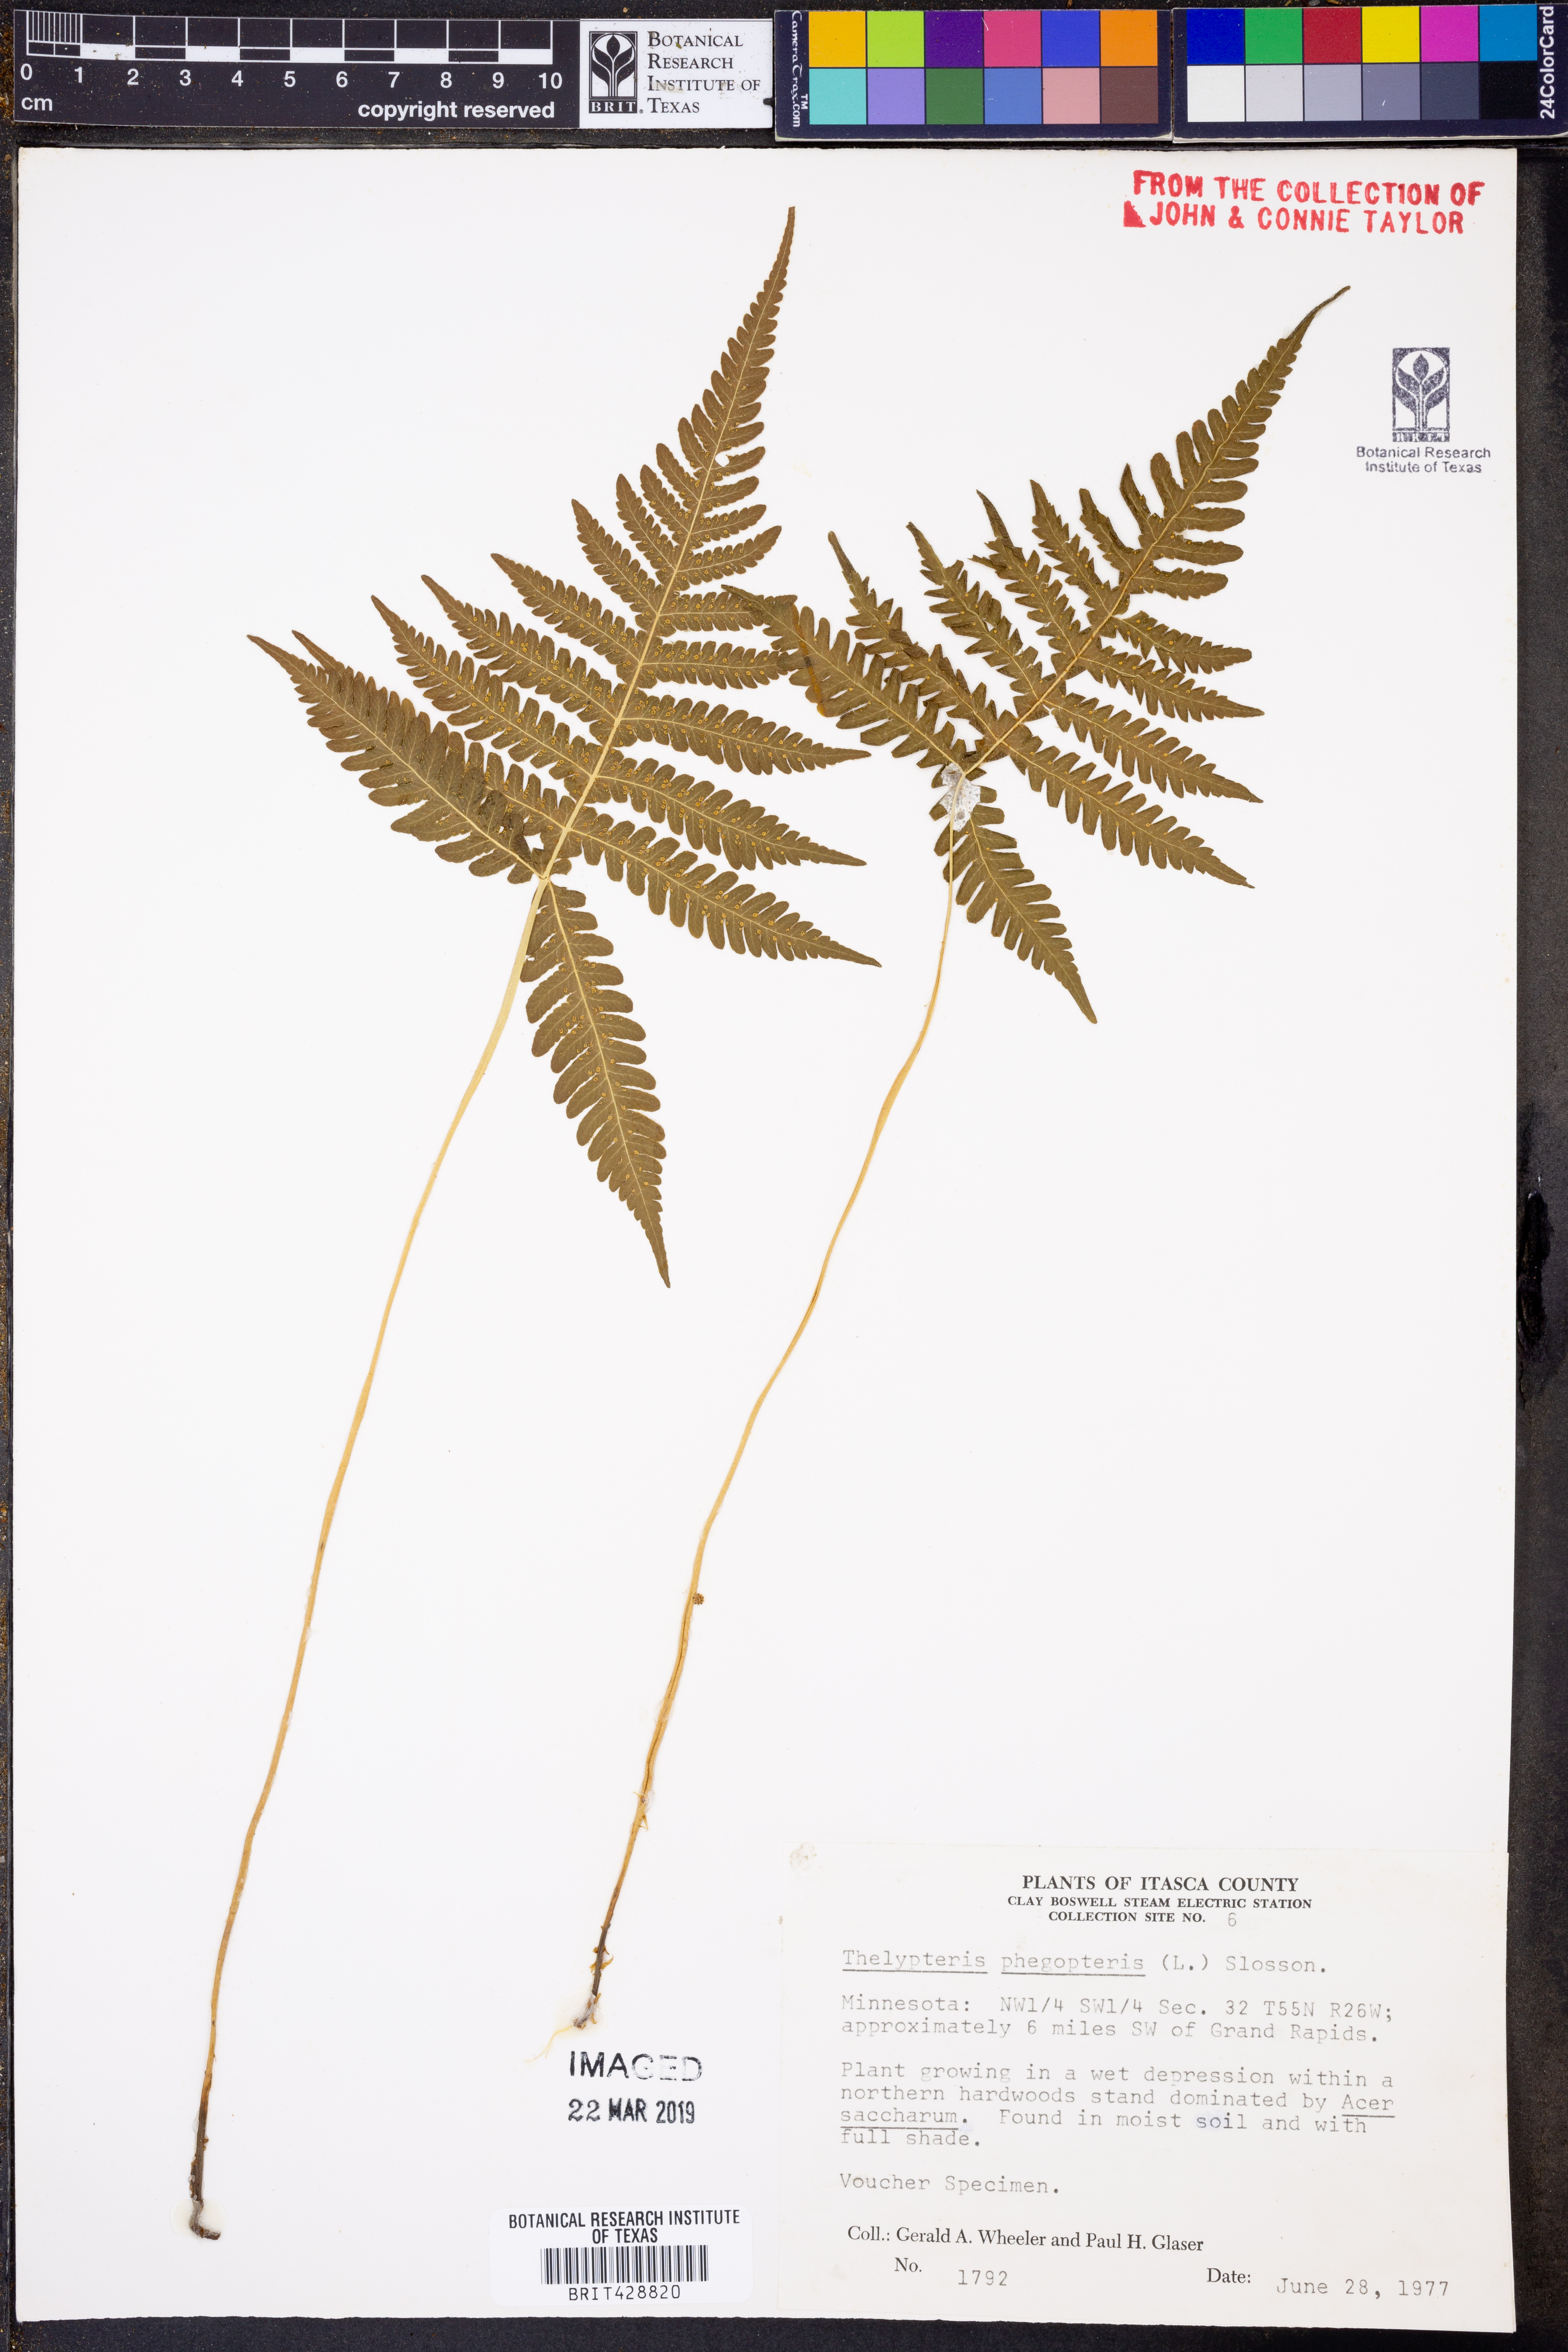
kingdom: Plantae
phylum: Tracheophyta
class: Polypodiopsida
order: Polypodiales
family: Thelypteridaceae
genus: Phegopteris
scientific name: Phegopteris connectilis
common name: Beech fern
